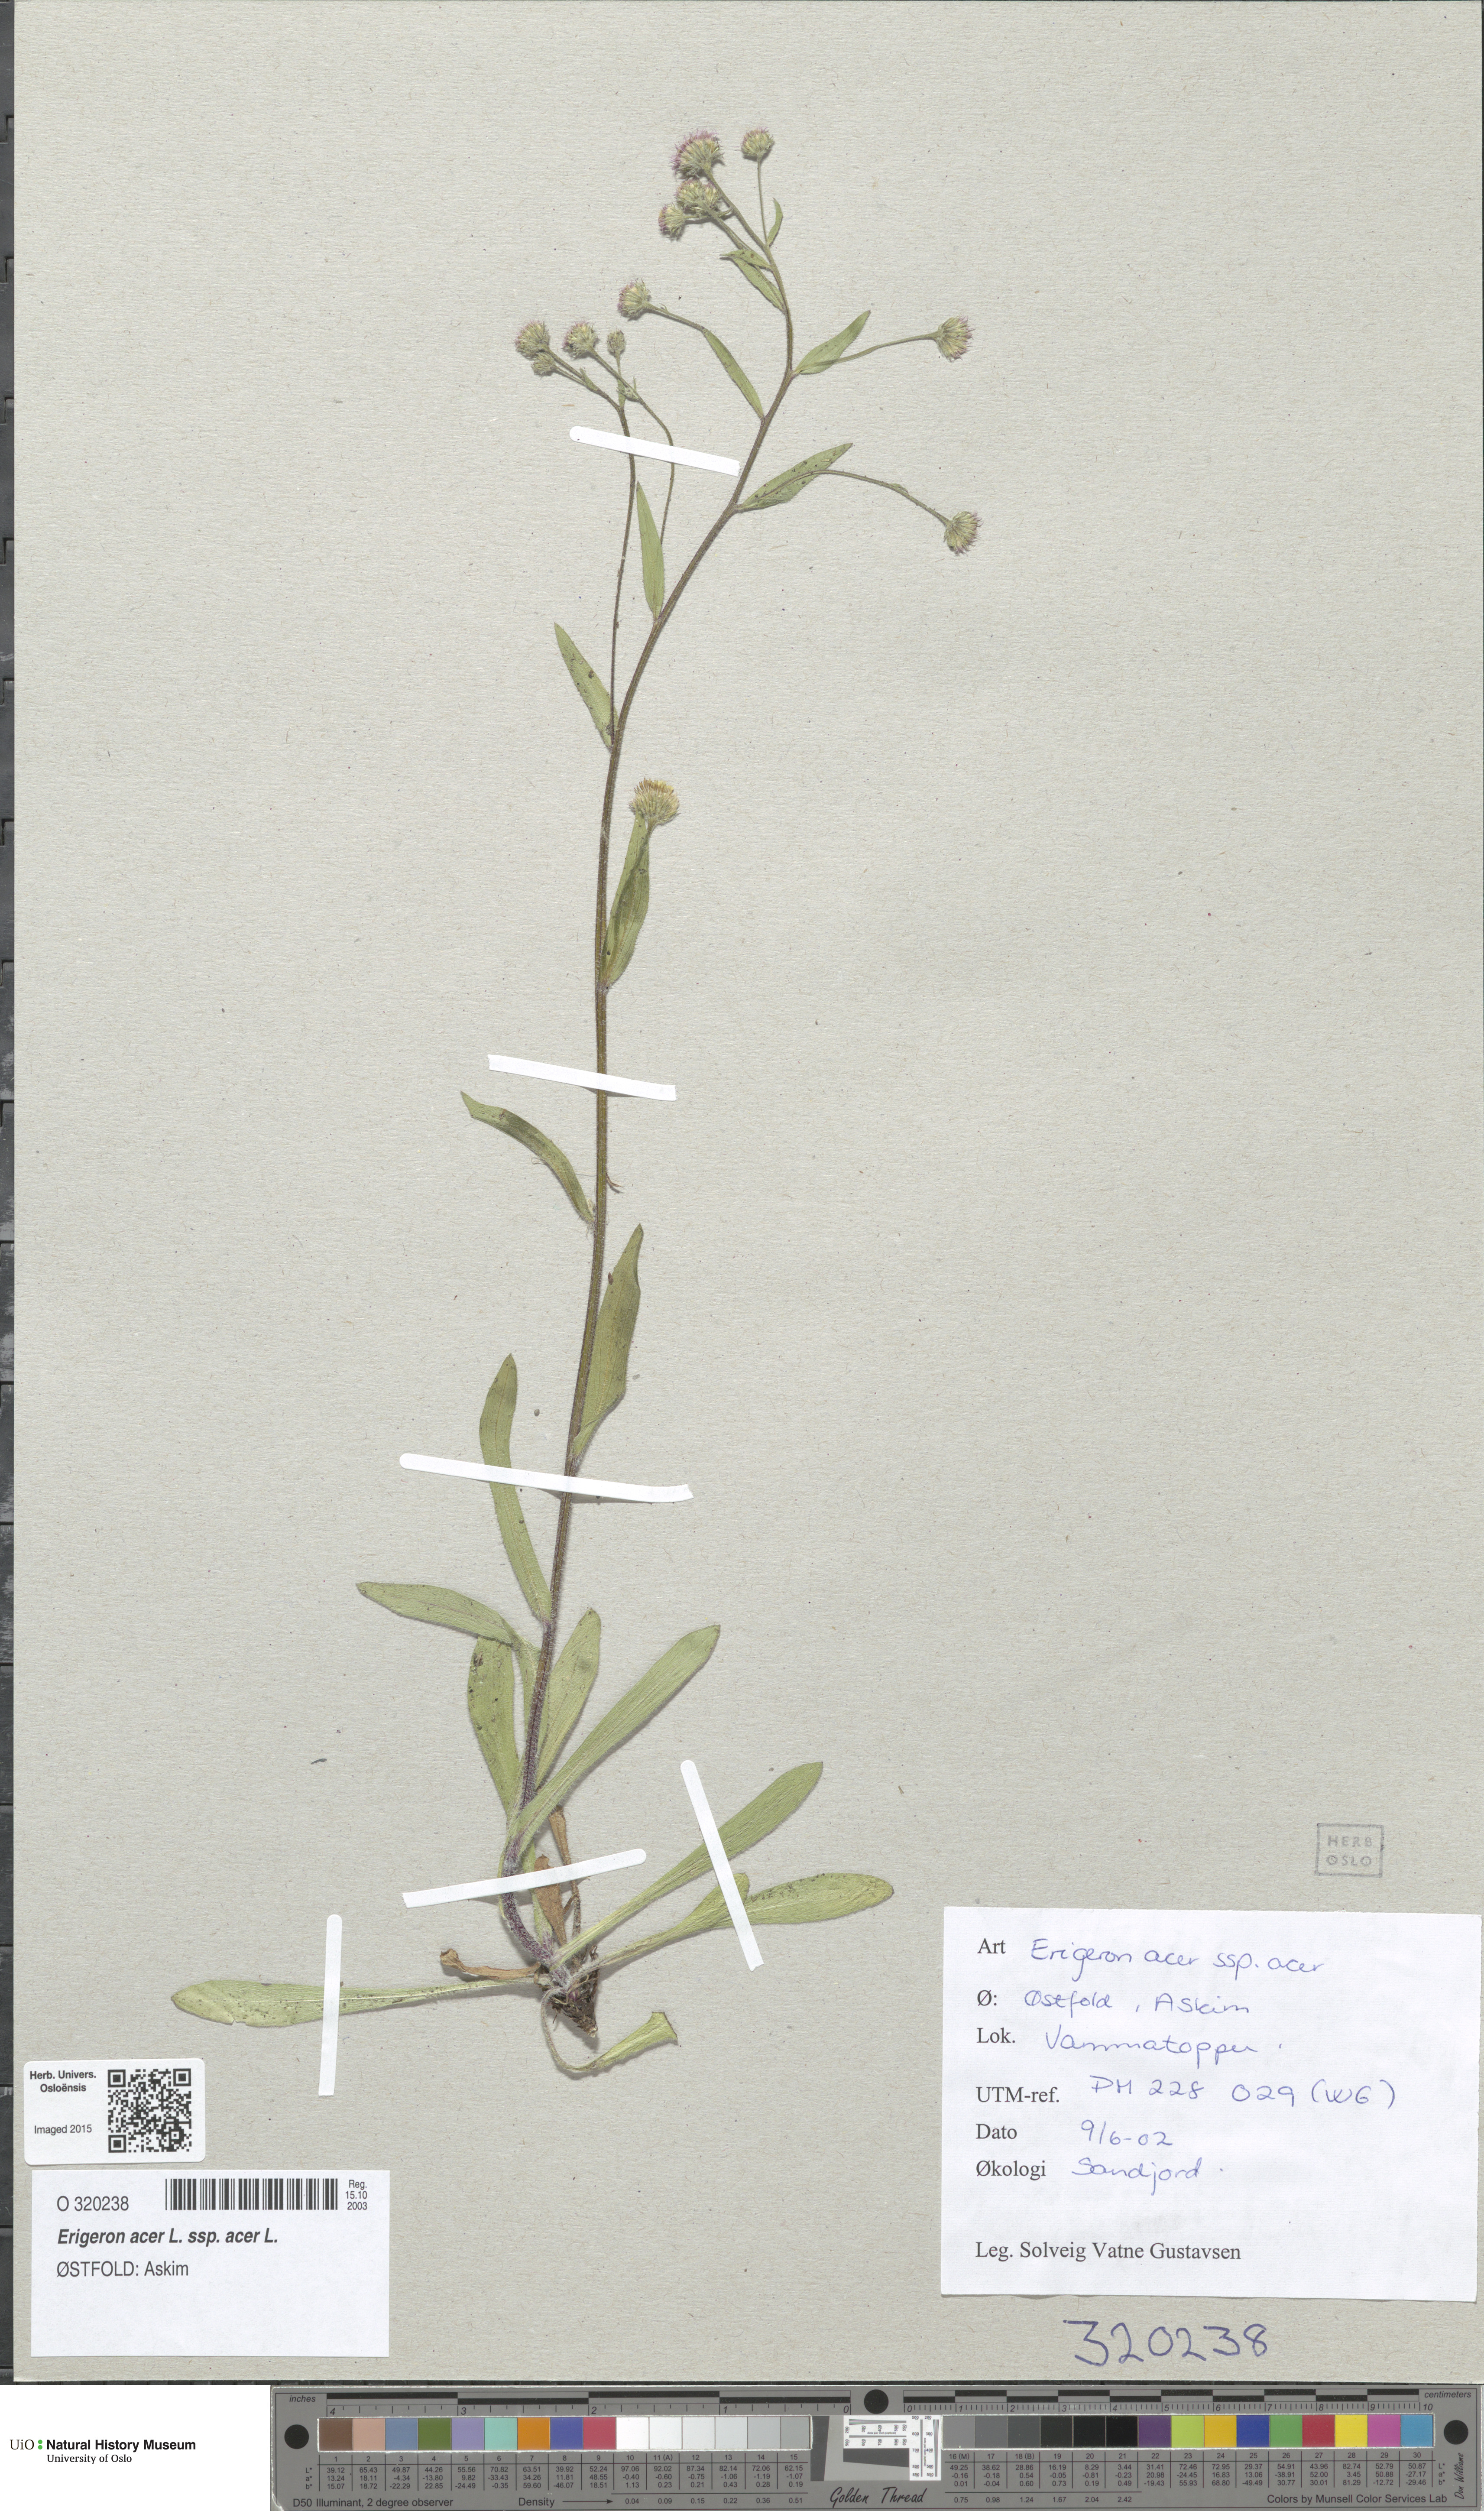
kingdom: Plantae
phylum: Tracheophyta
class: Magnoliopsida
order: Asterales
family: Asteraceae
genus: Erigeron
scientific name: Erigeron acris
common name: Blue fleabane
